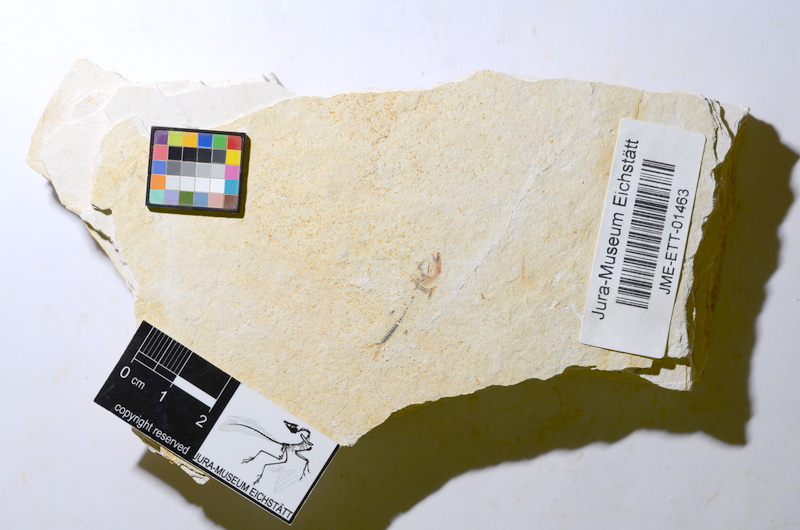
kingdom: Animalia
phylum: Chordata
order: Salmoniformes
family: Orthogonikleithridae
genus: Orthogonikleithrus
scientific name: Orthogonikleithrus hoelli
